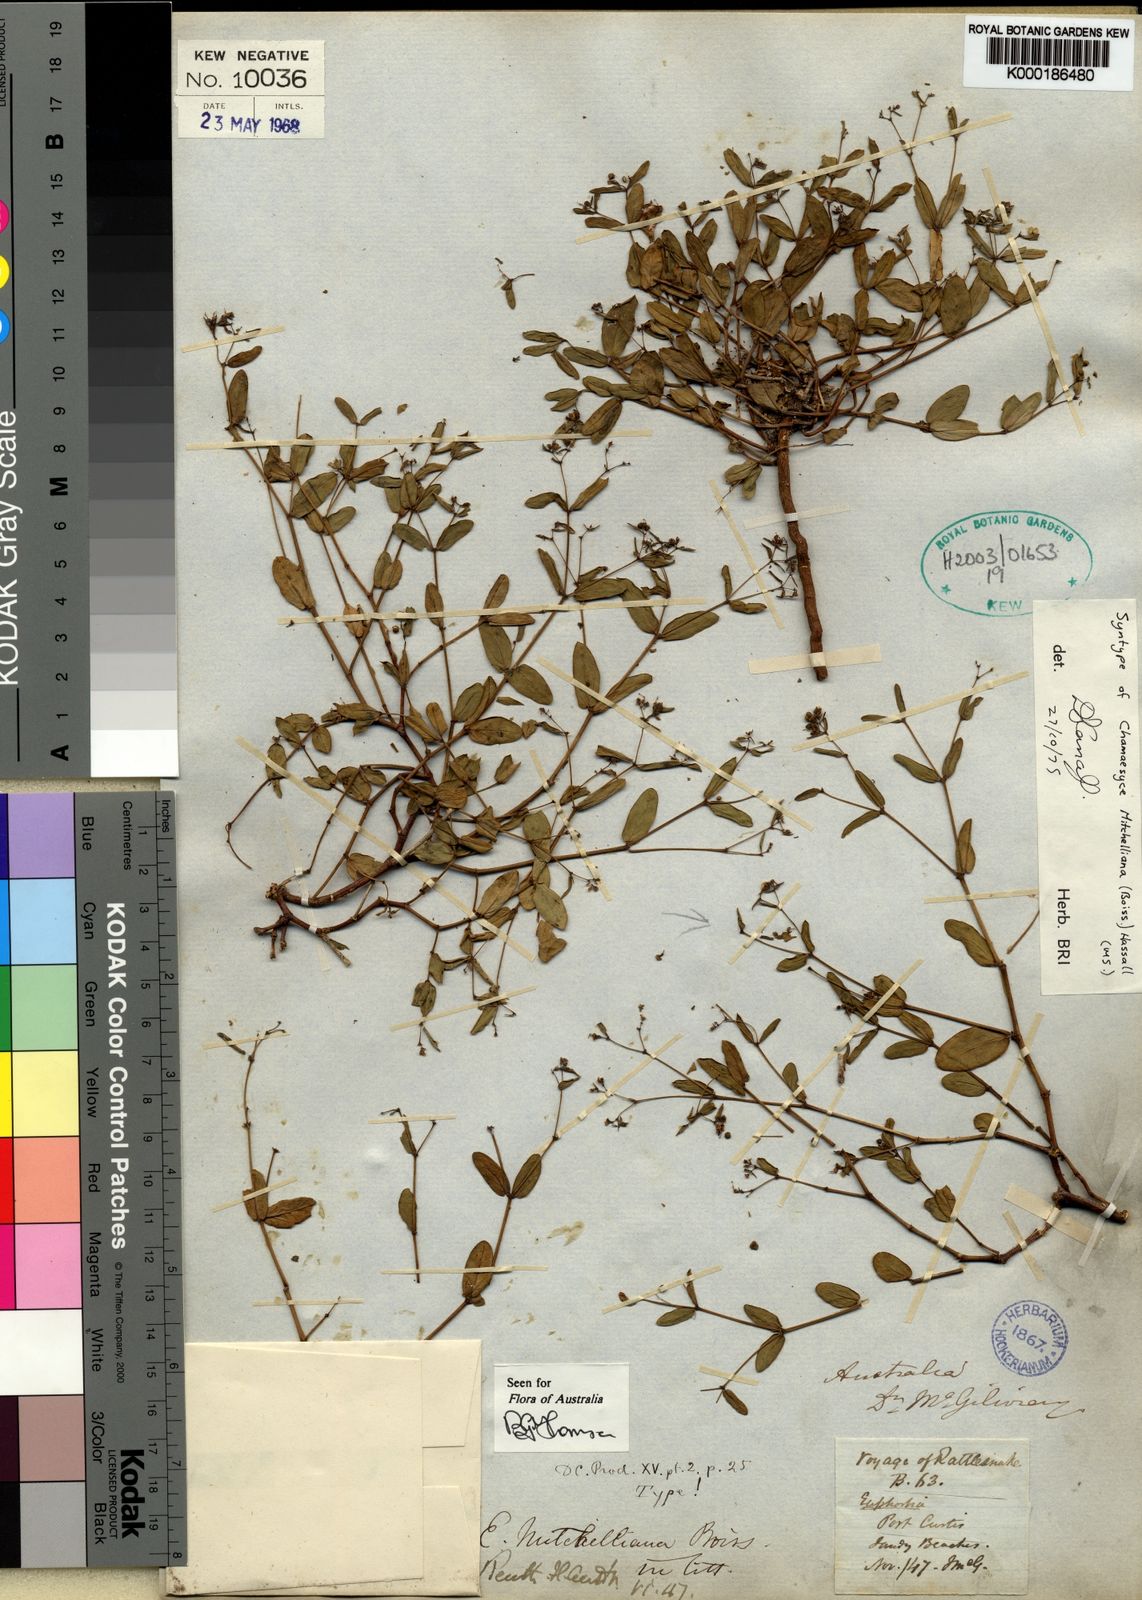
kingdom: Plantae
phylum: Tracheophyta
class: Magnoliopsida
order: Malpighiales
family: Euphorbiaceae
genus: Euphorbia
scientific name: Euphorbia mitchelliana
